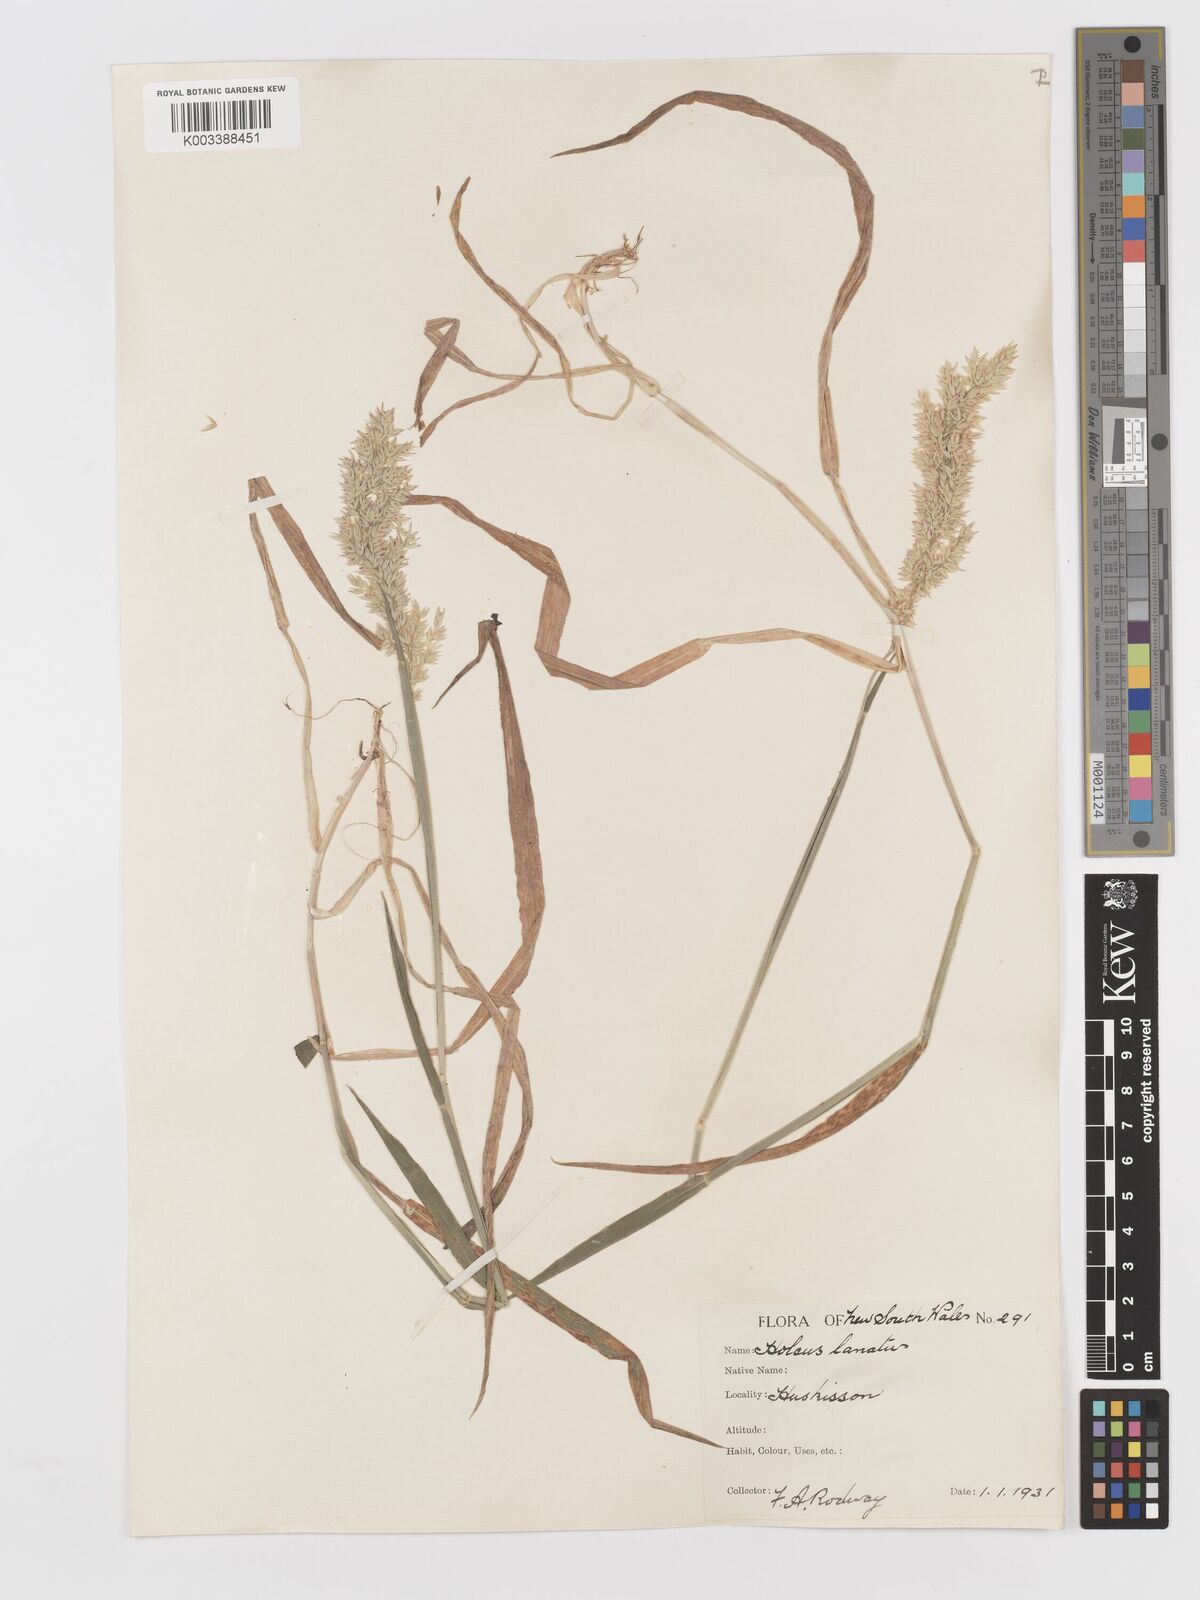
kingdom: Plantae
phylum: Tracheophyta
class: Liliopsida
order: Poales
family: Poaceae
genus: Holcus
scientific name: Holcus lanatus
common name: Yorkshire-fog
